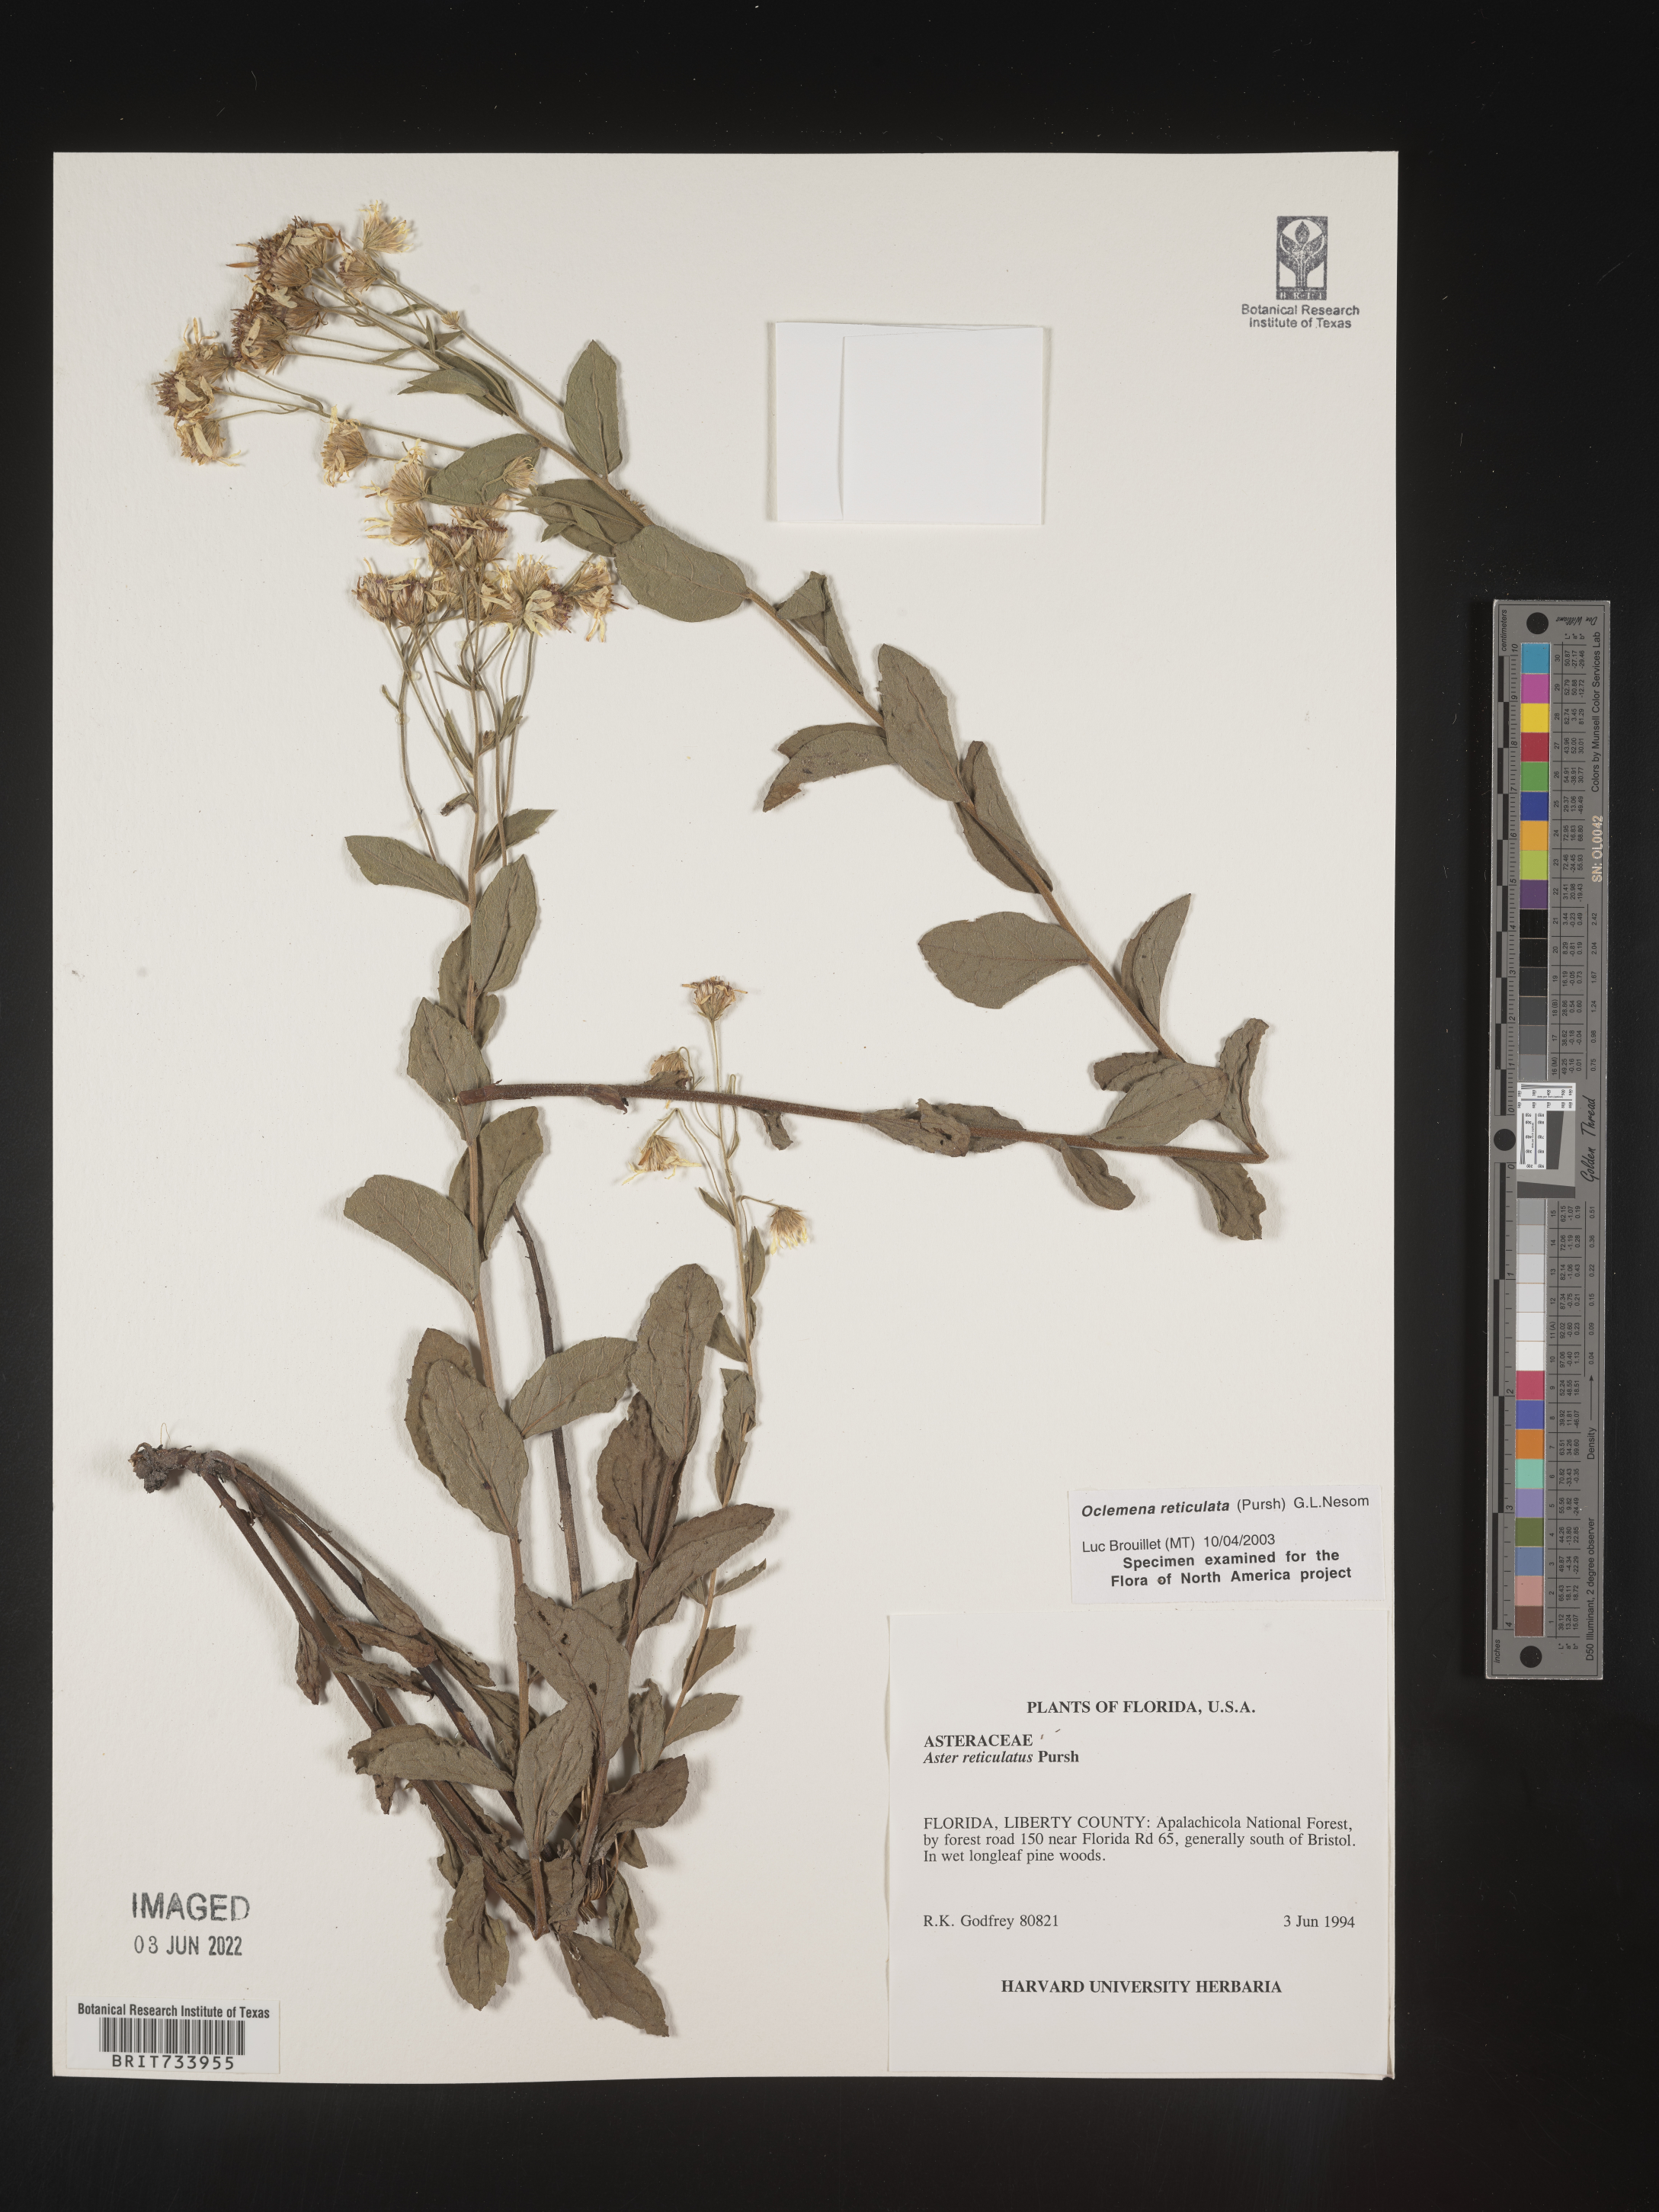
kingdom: Plantae
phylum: Tracheophyta
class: Magnoliopsida
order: Asterales
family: Asteraceae
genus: Oclemena
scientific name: Oclemena reticulata
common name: Pinebarren aster
